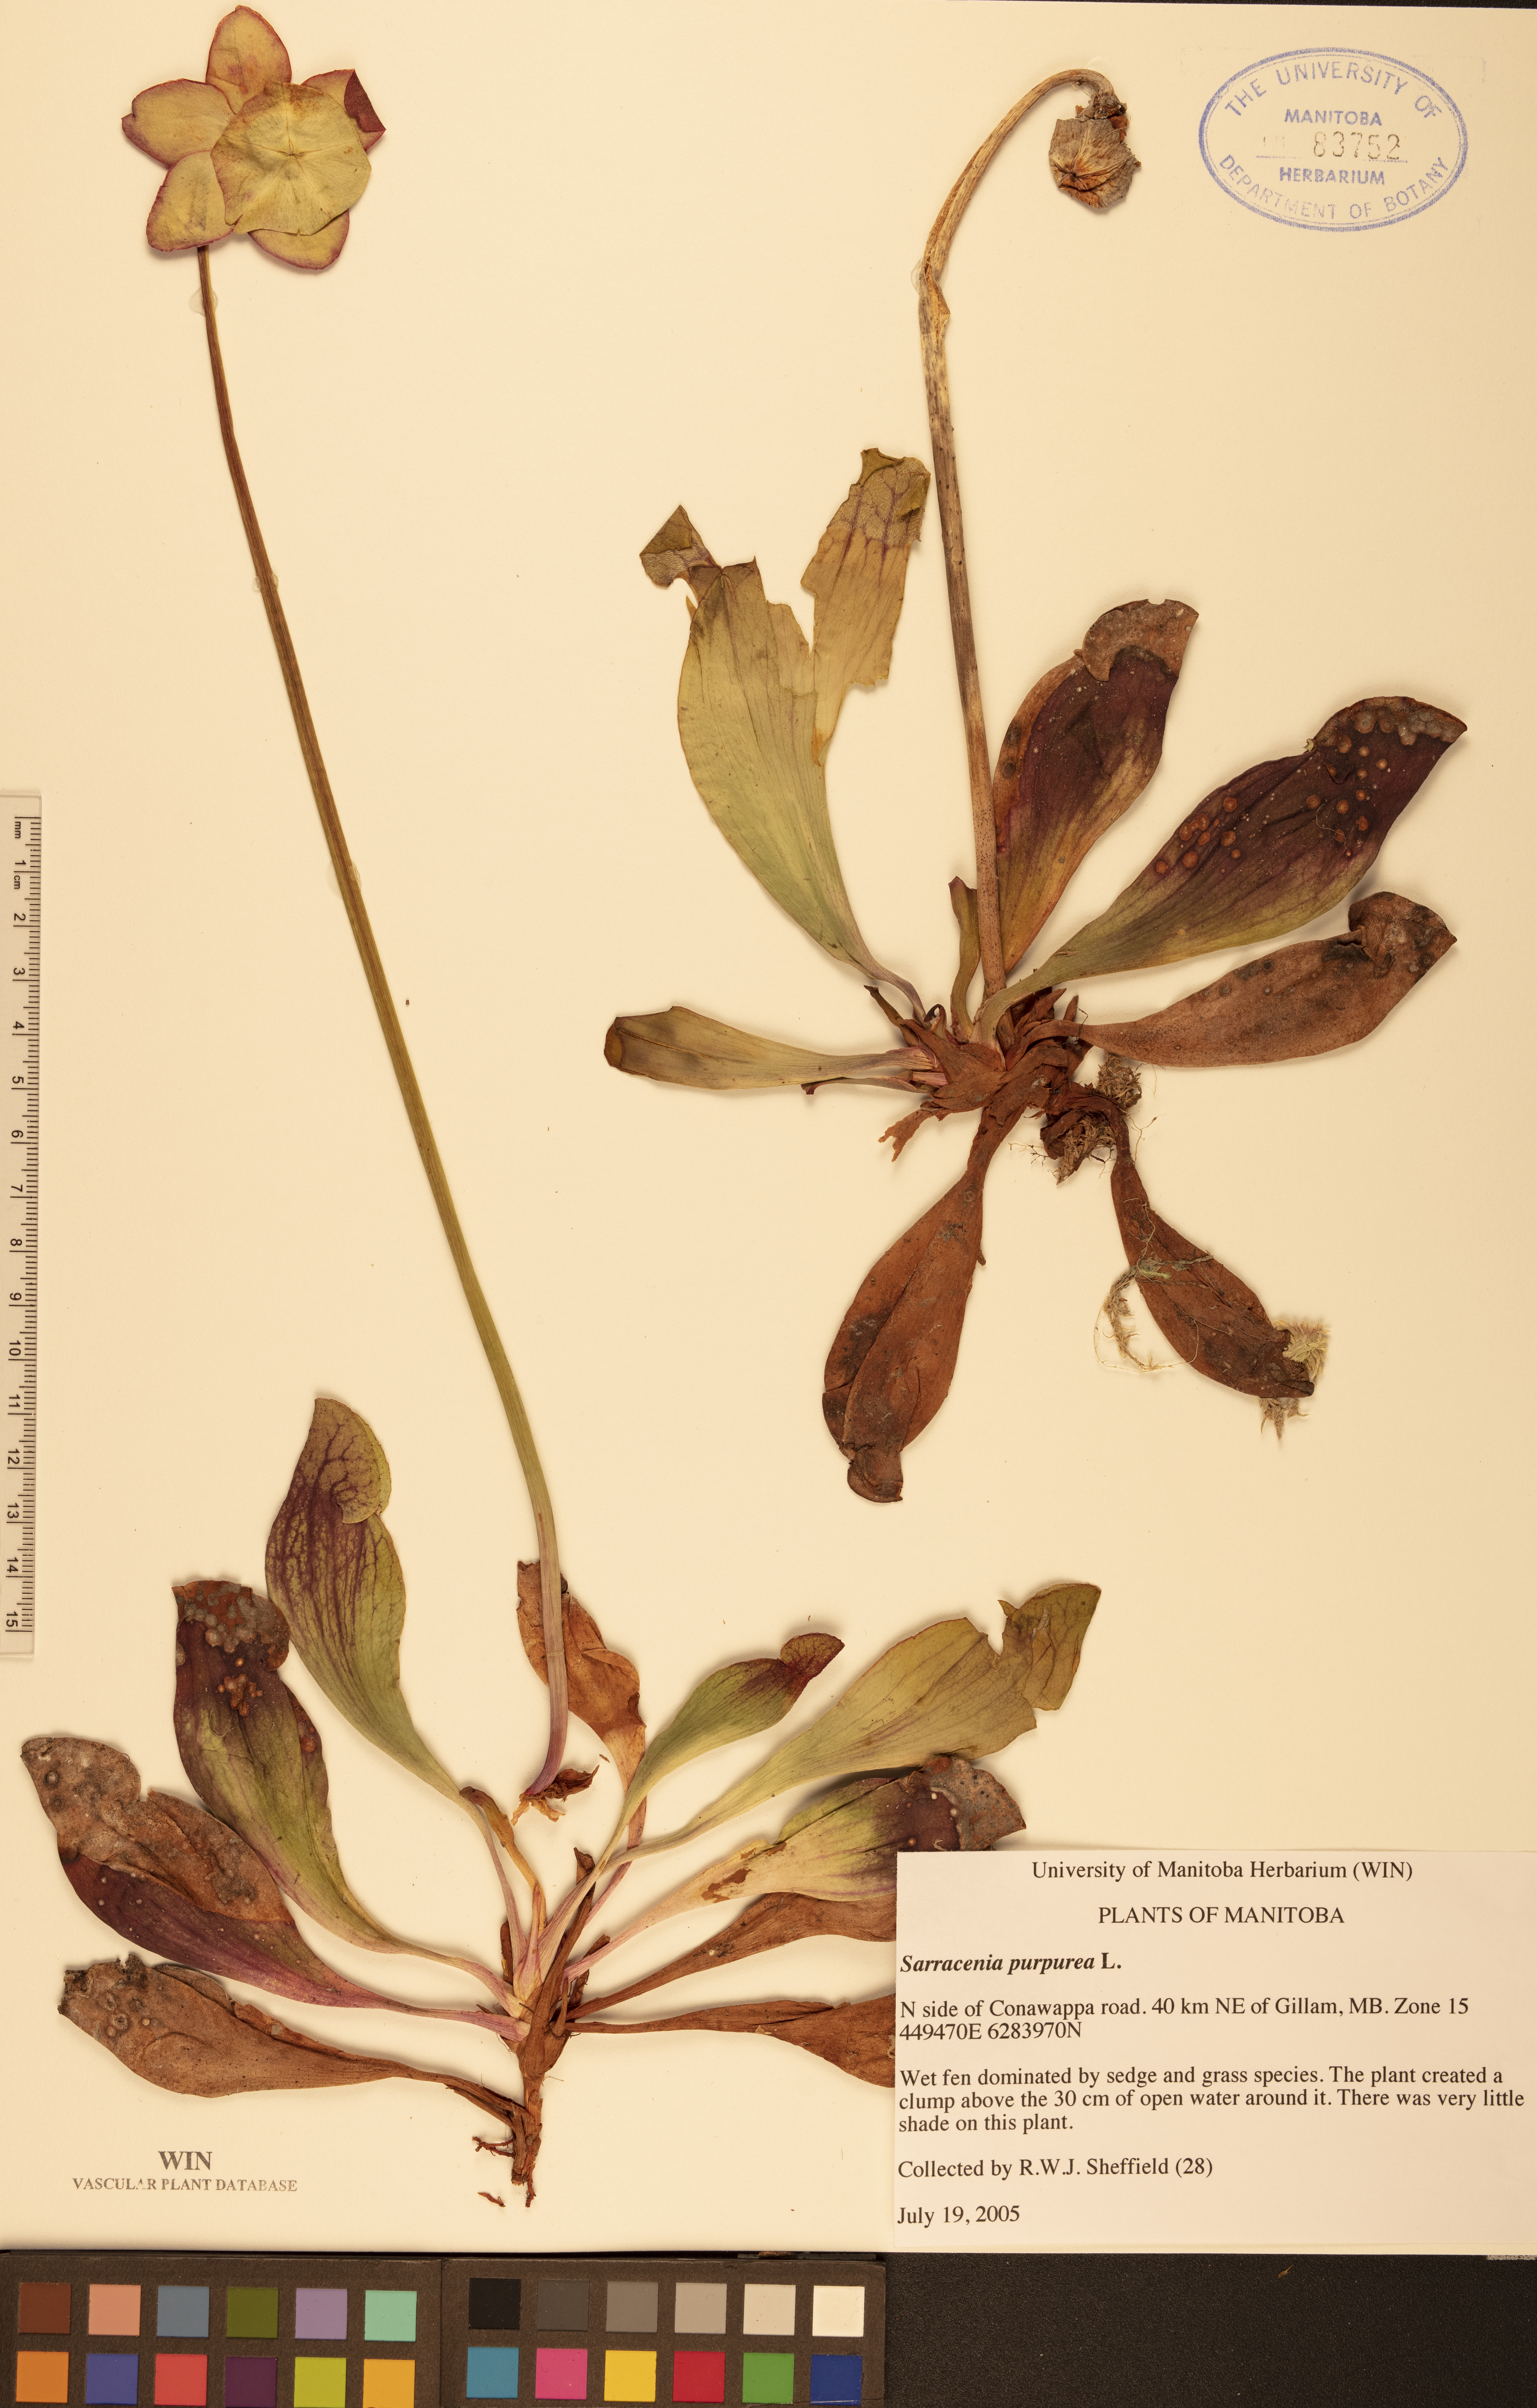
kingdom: Plantae
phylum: Tracheophyta
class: Magnoliopsida
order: Ericales
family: Sarraceniaceae
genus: Sarracenia
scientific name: Sarracenia purpurea
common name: Pitcherplant
